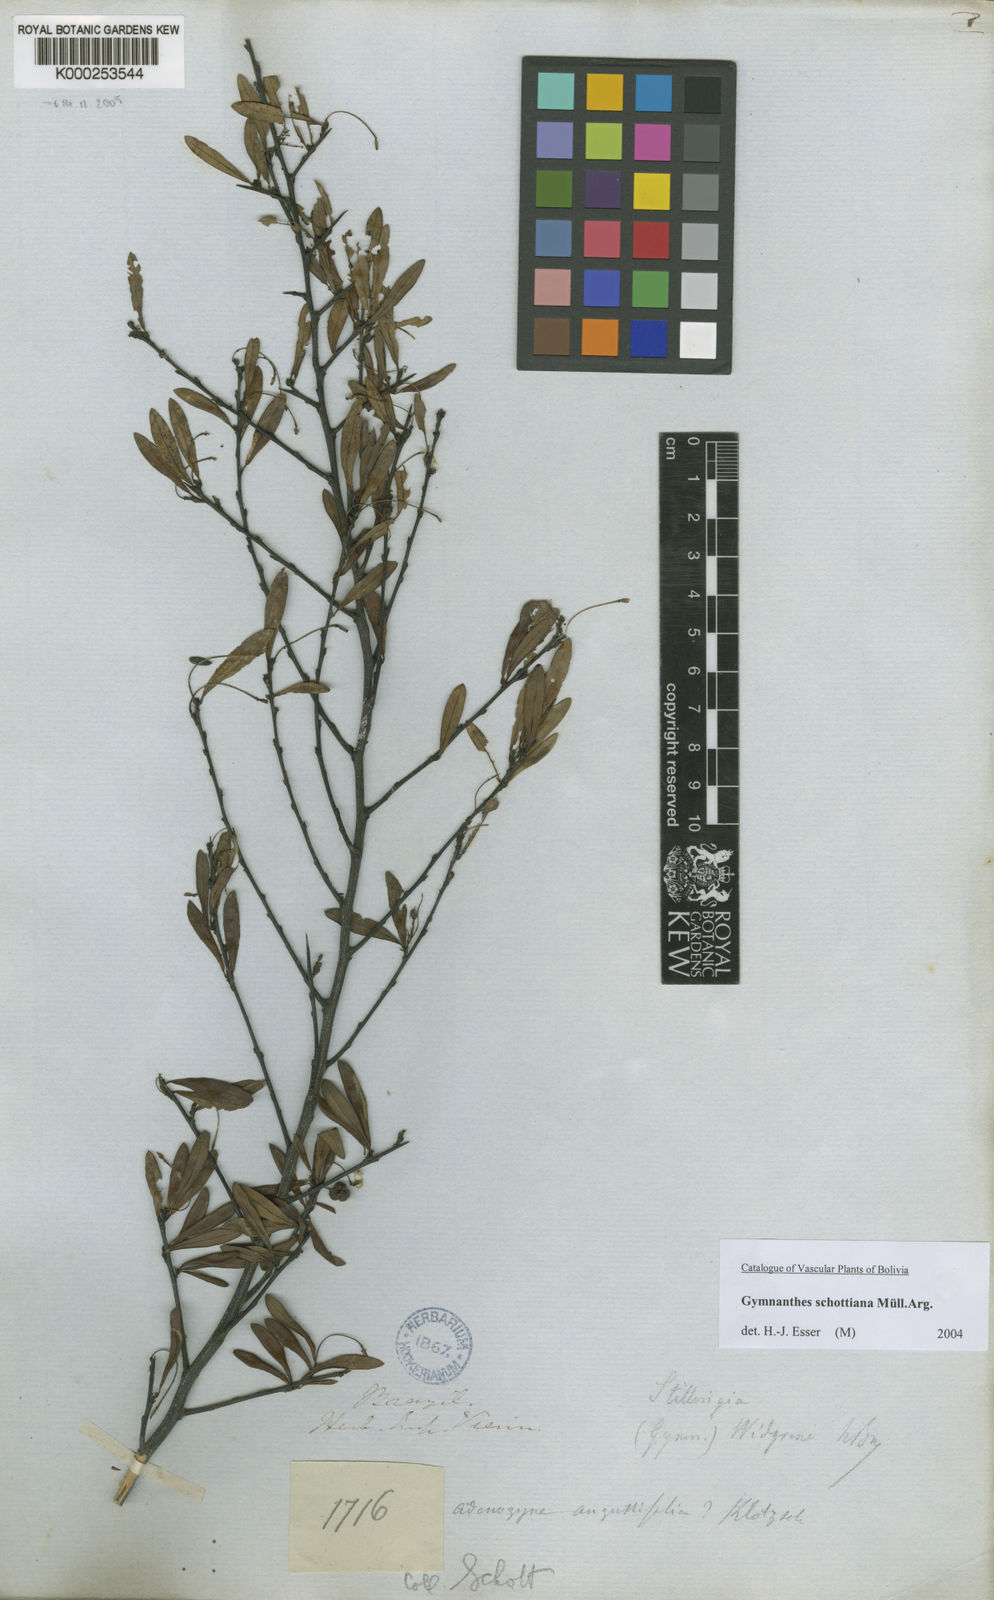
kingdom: Plantae
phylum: Tracheophyta
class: Magnoliopsida
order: Malpighiales
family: Euphorbiaceae
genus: Gymnanthes
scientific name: Gymnanthes
